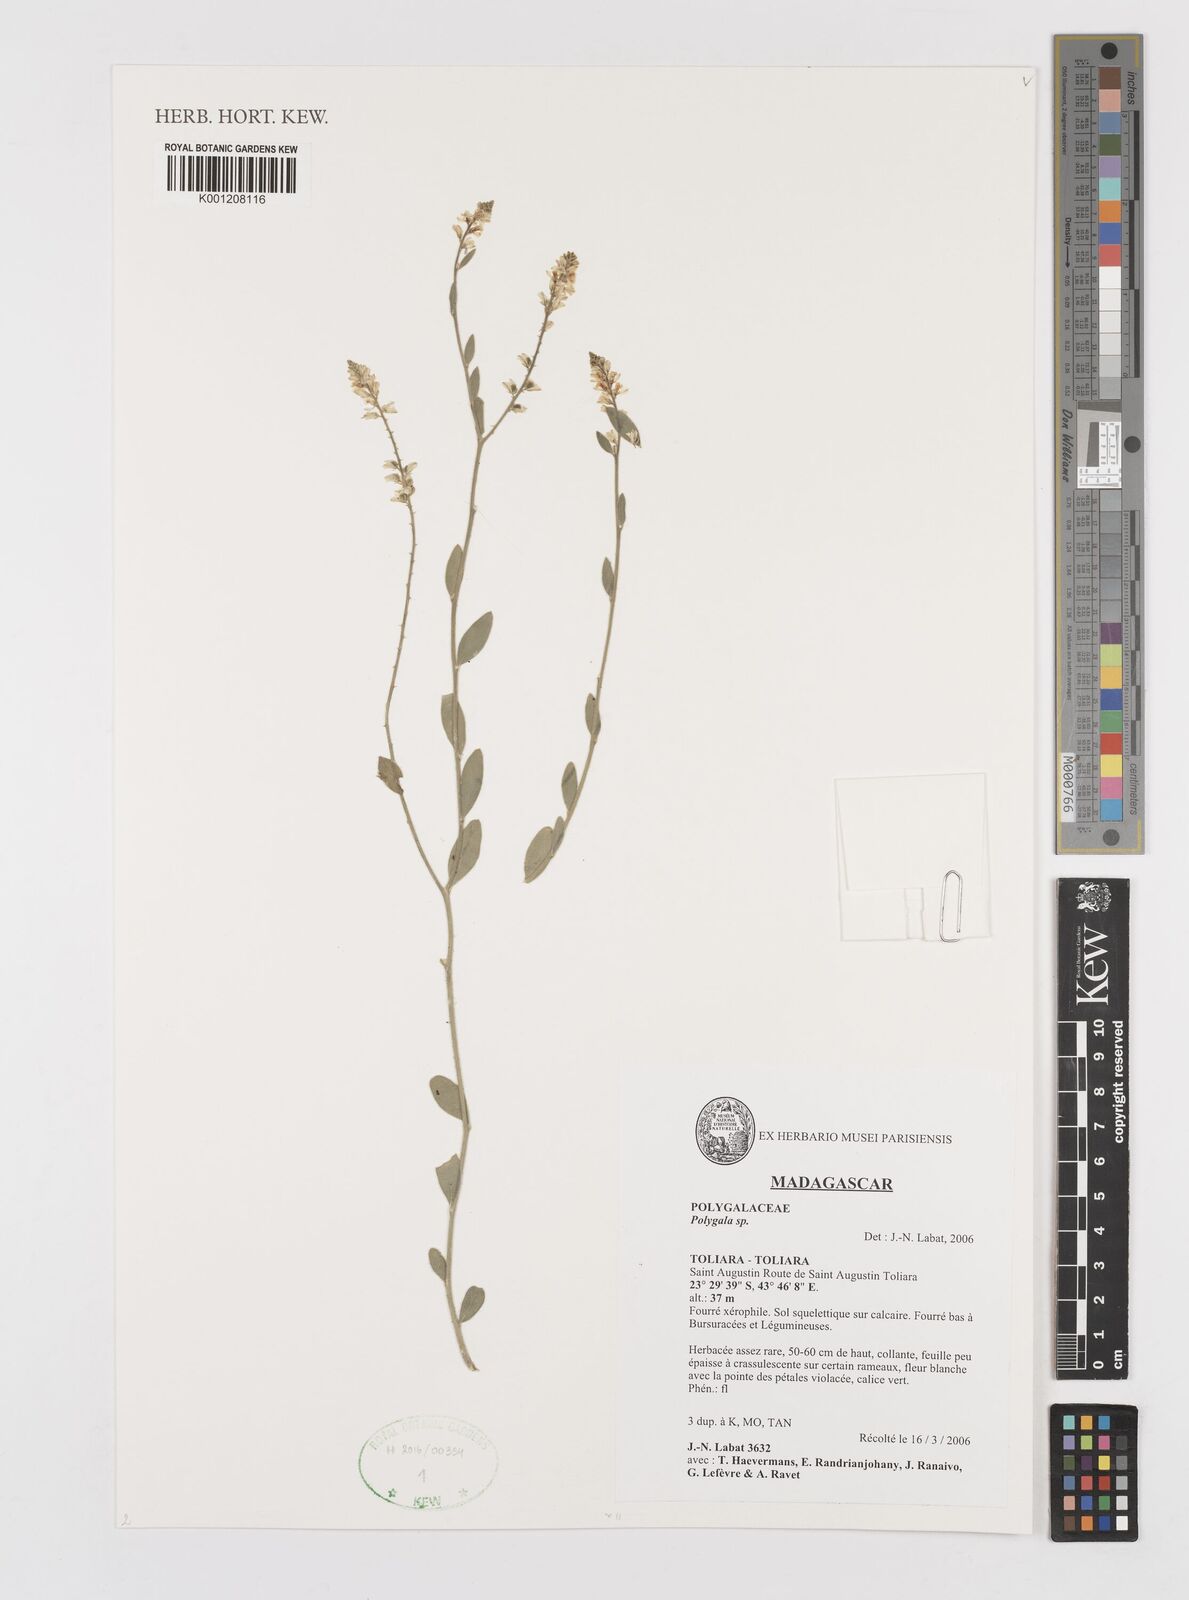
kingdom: Plantae
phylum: Tracheophyta
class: Magnoliopsida
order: Fabales
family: Polygalaceae
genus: Polygala
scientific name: Polygala
